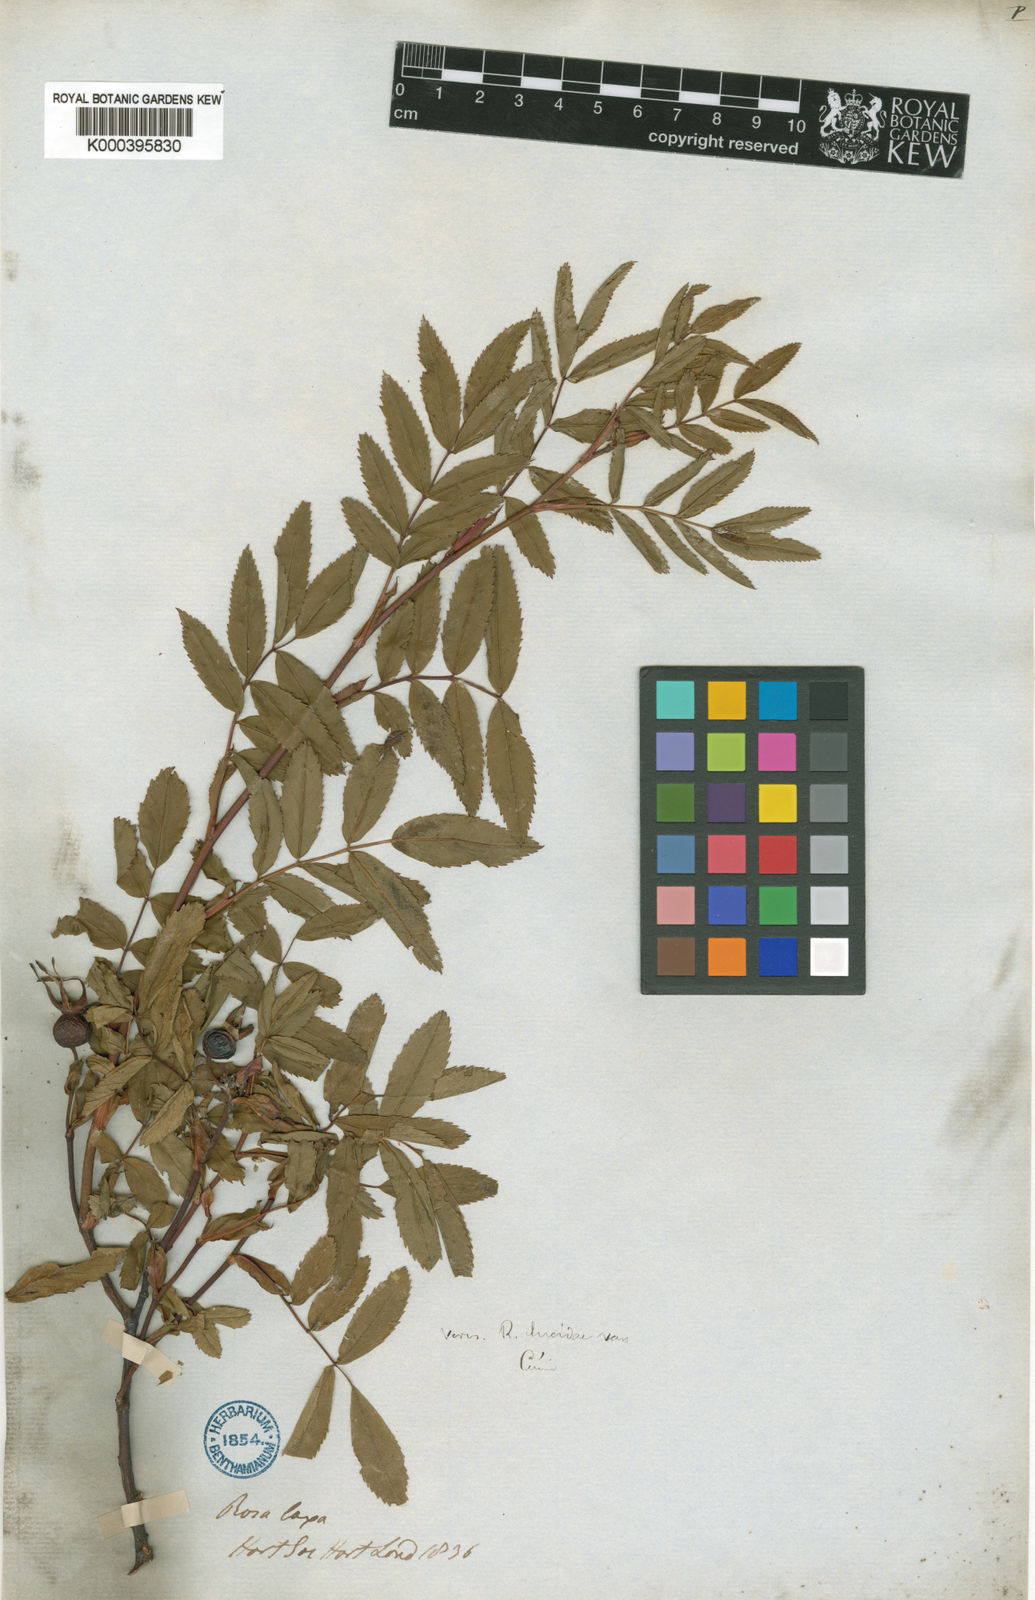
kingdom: Plantae
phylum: Tracheophyta
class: Magnoliopsida
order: Rosales
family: Rosaceae
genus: Rosa
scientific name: Rosa laxa
